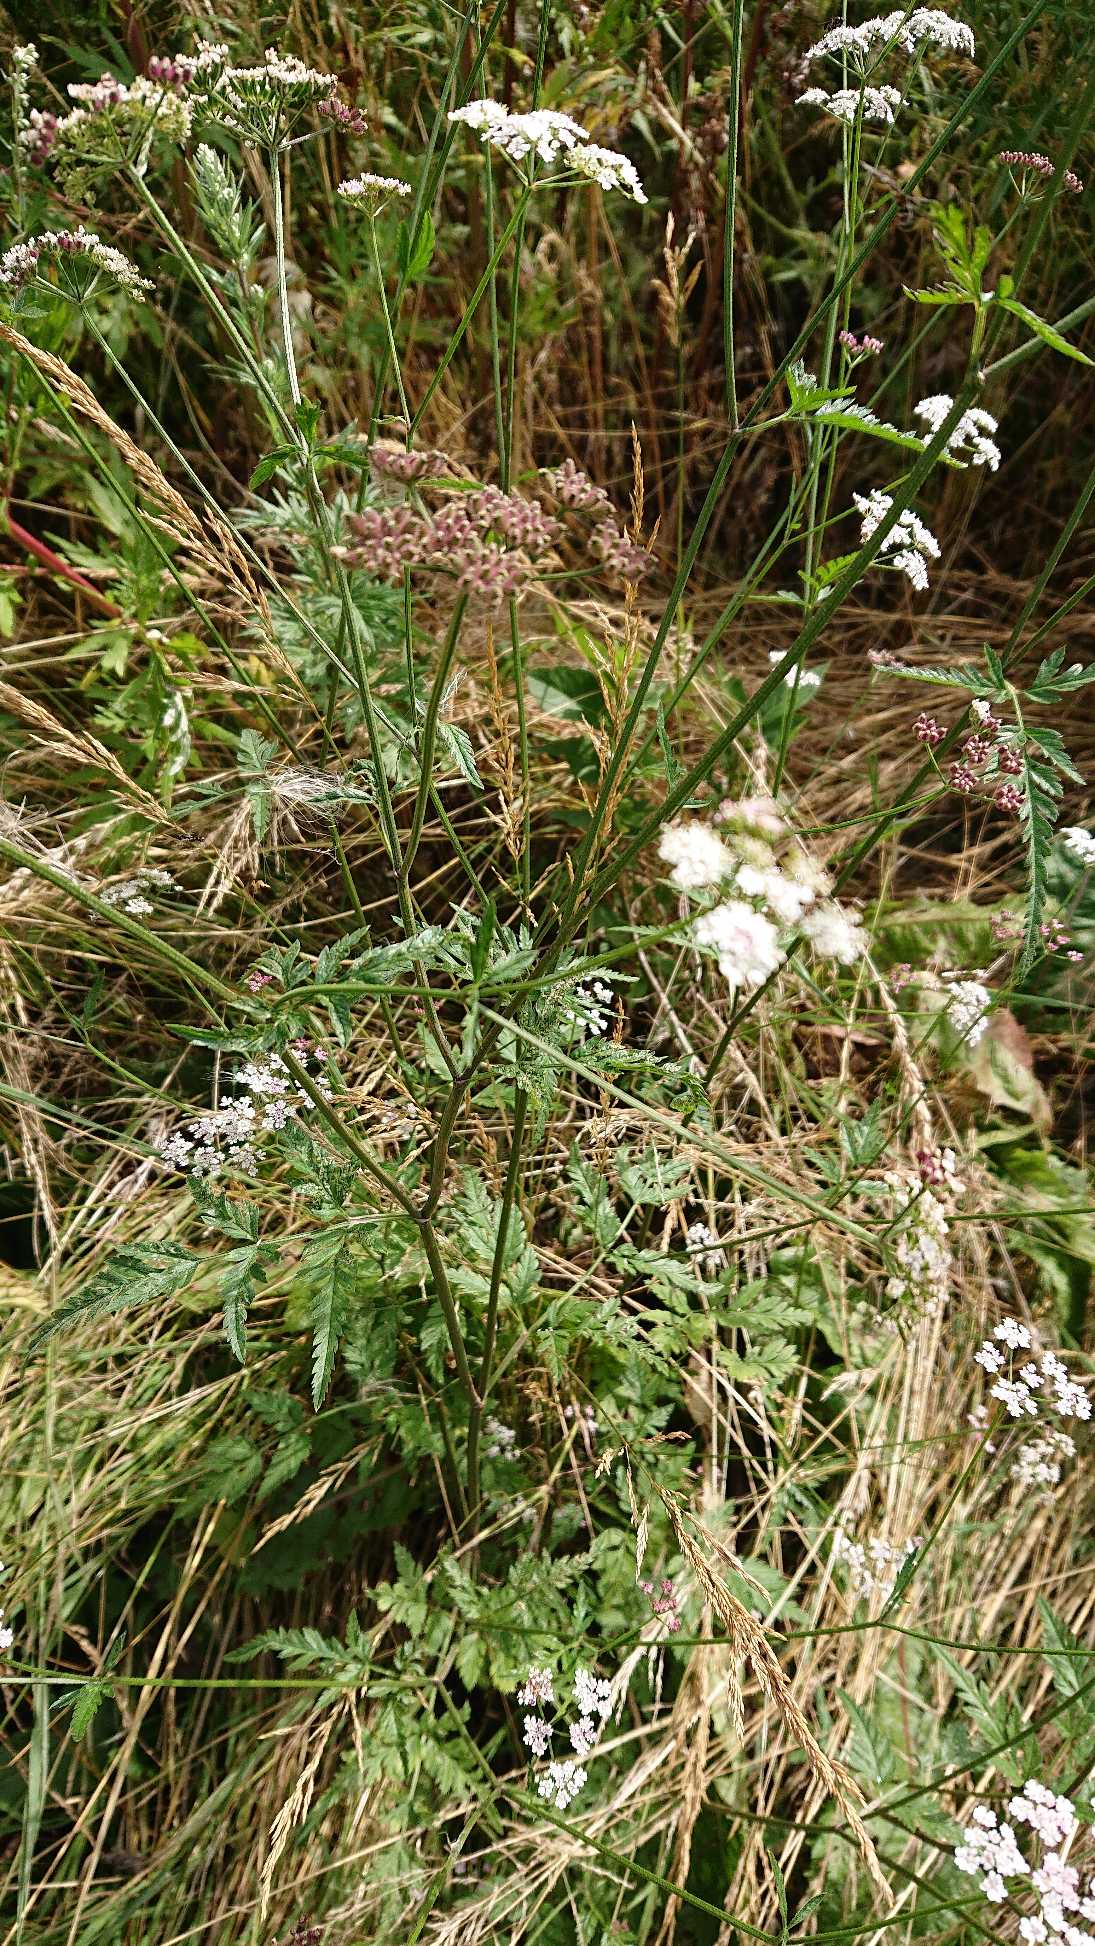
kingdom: Plantae
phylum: Tracheophyta
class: Magnoliopsida
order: Apiales
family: Apiaceae
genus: Torilis
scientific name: Torilis japonica
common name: Hvas randfrø
